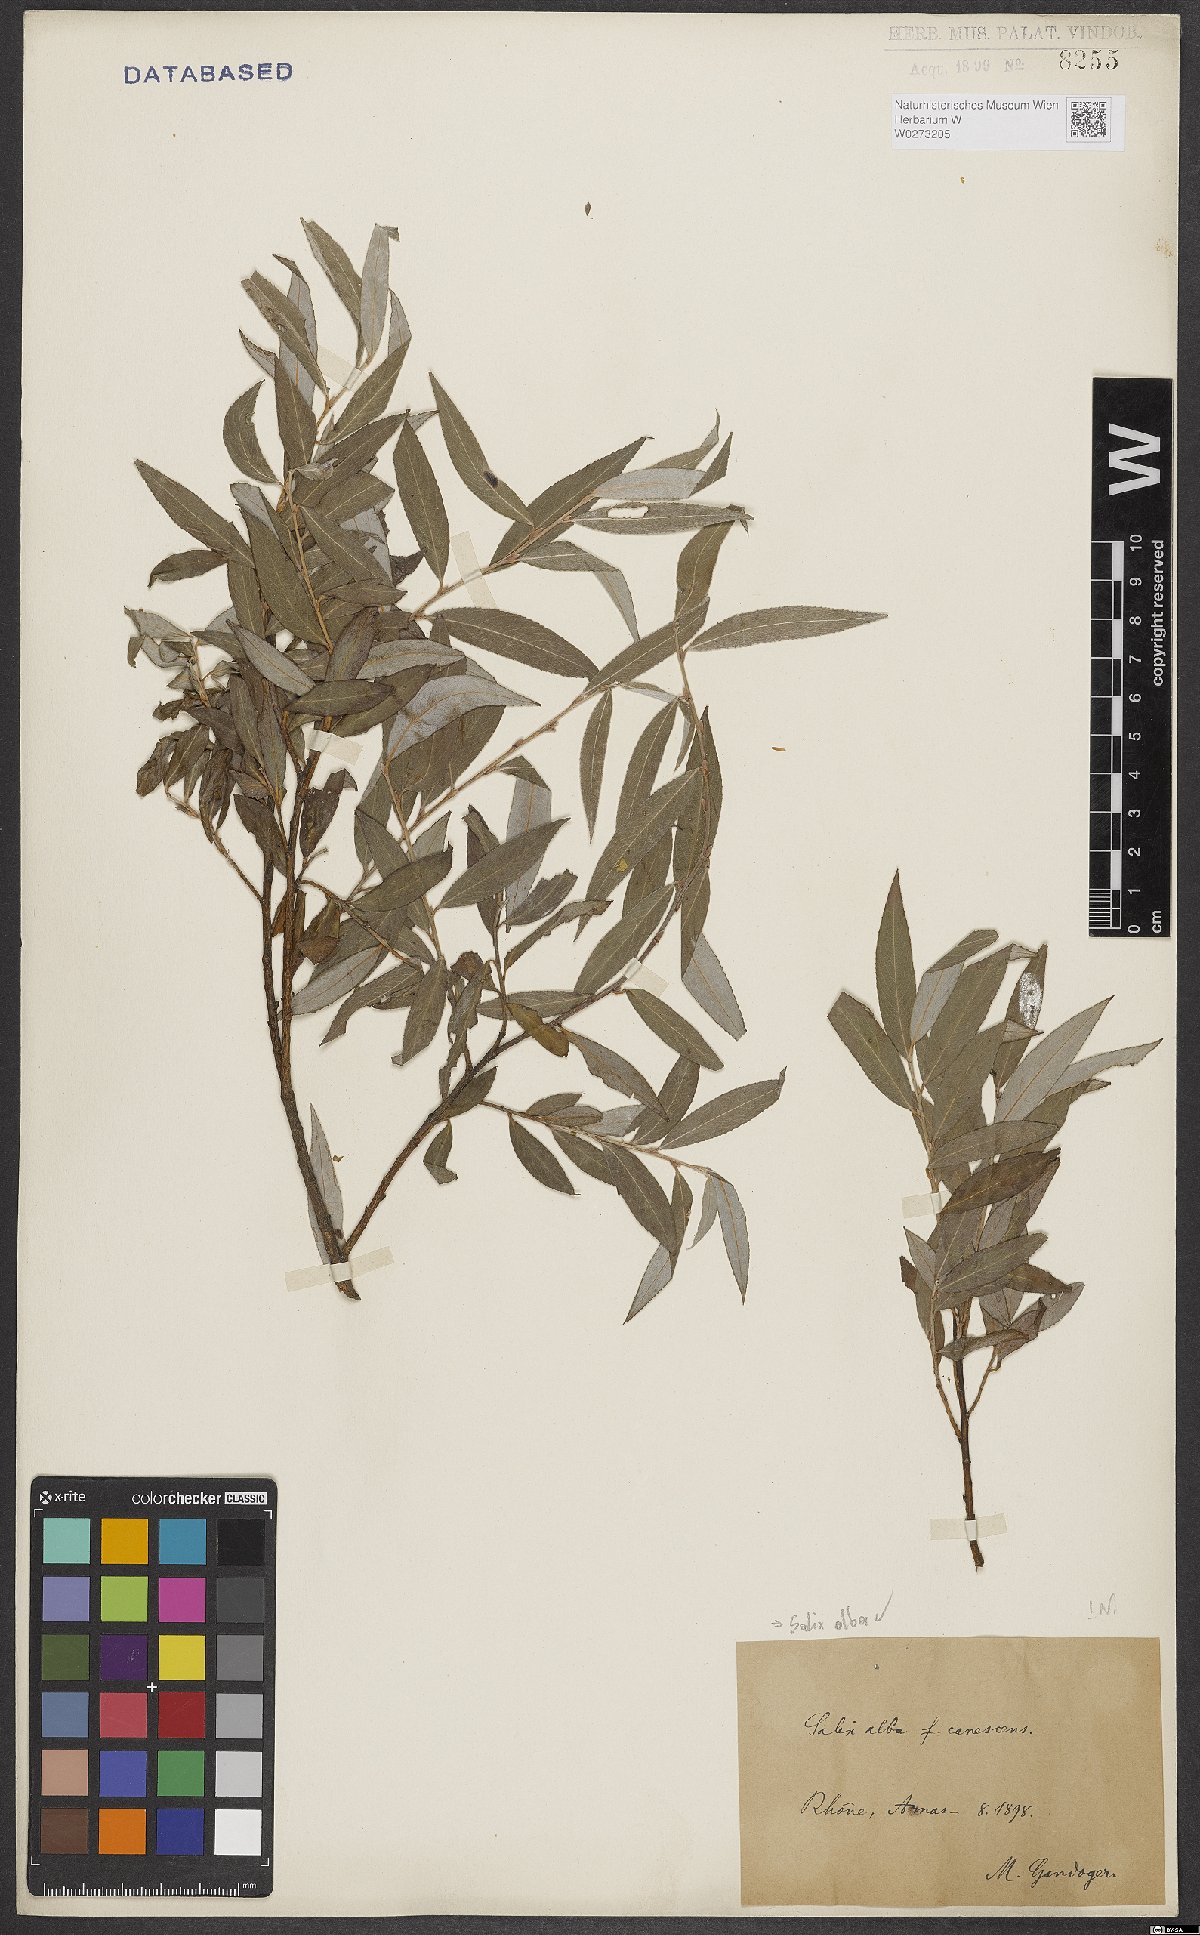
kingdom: Plantae
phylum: Tracheophyta
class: Magnoliopsida
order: Malpighiales
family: Salicaceae
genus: Salix
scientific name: Salix alba
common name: White willow
